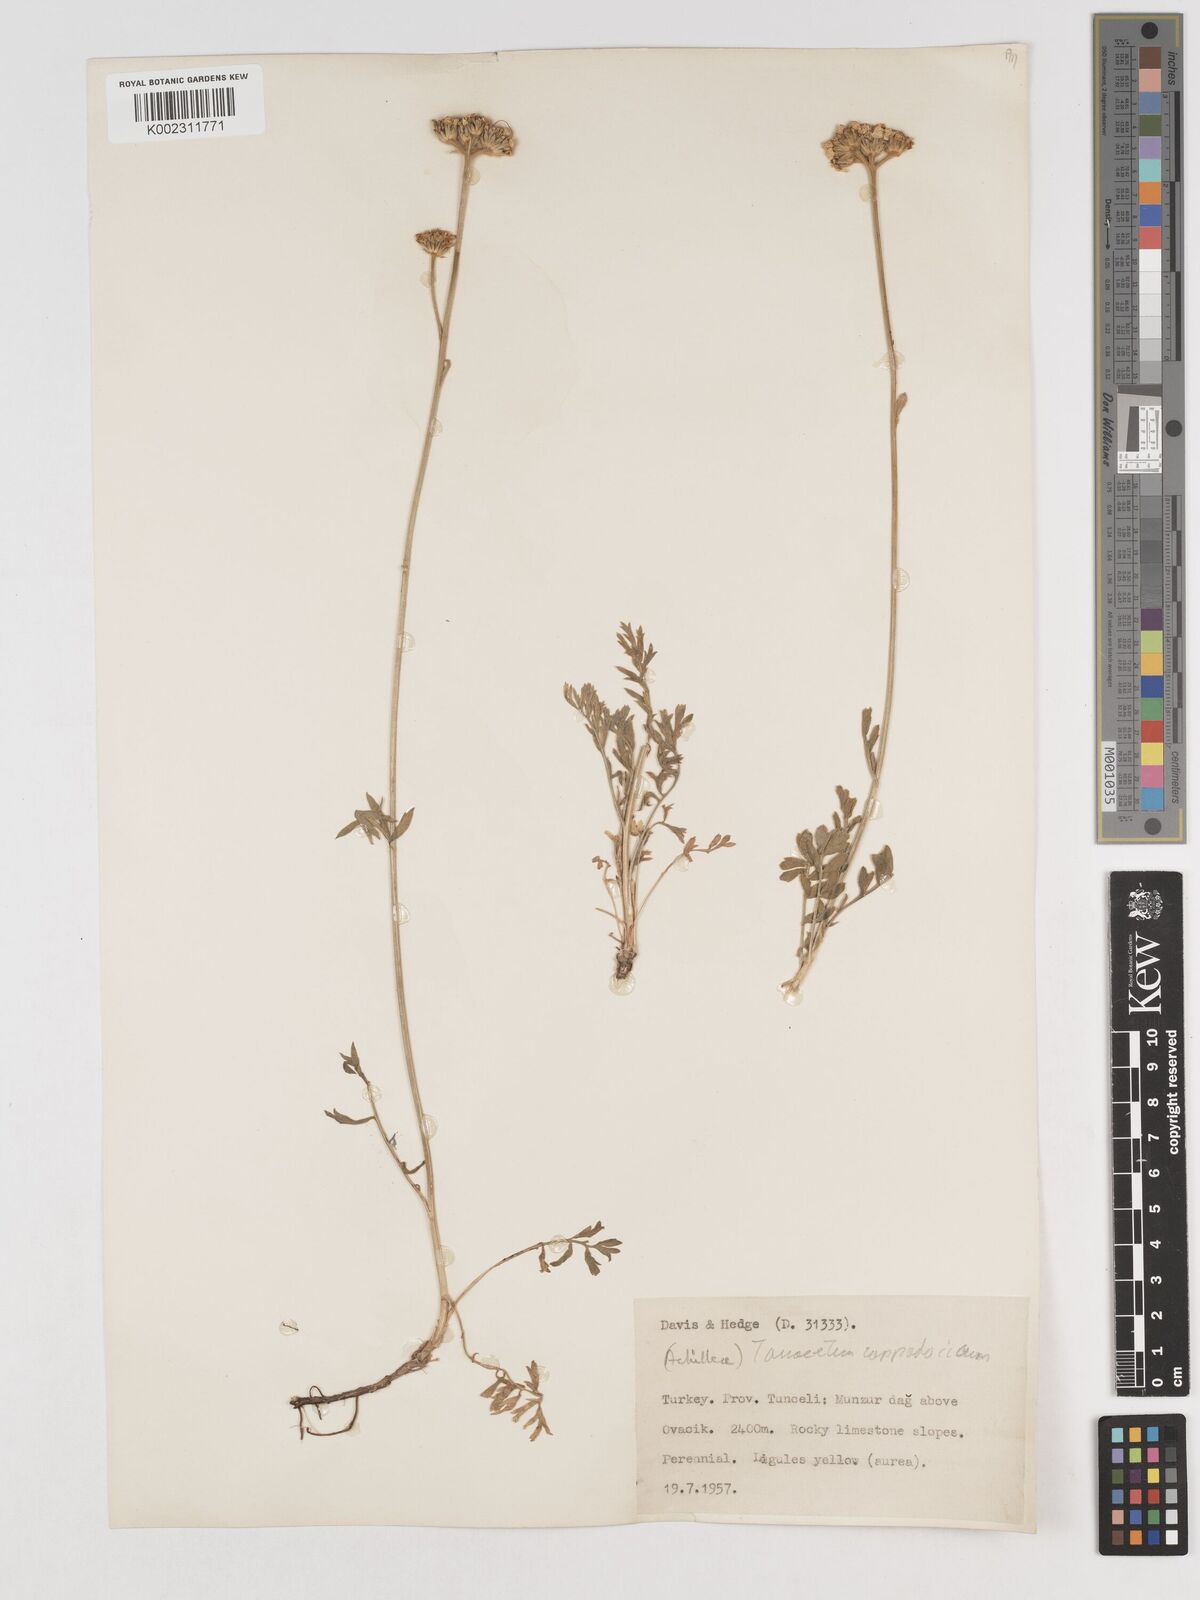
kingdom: Plantae
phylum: Tracheophyta
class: Magnoliopsida
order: Asterales
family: Asteraceae
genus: Tanacetum
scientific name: Tanacetum cappadocicum
